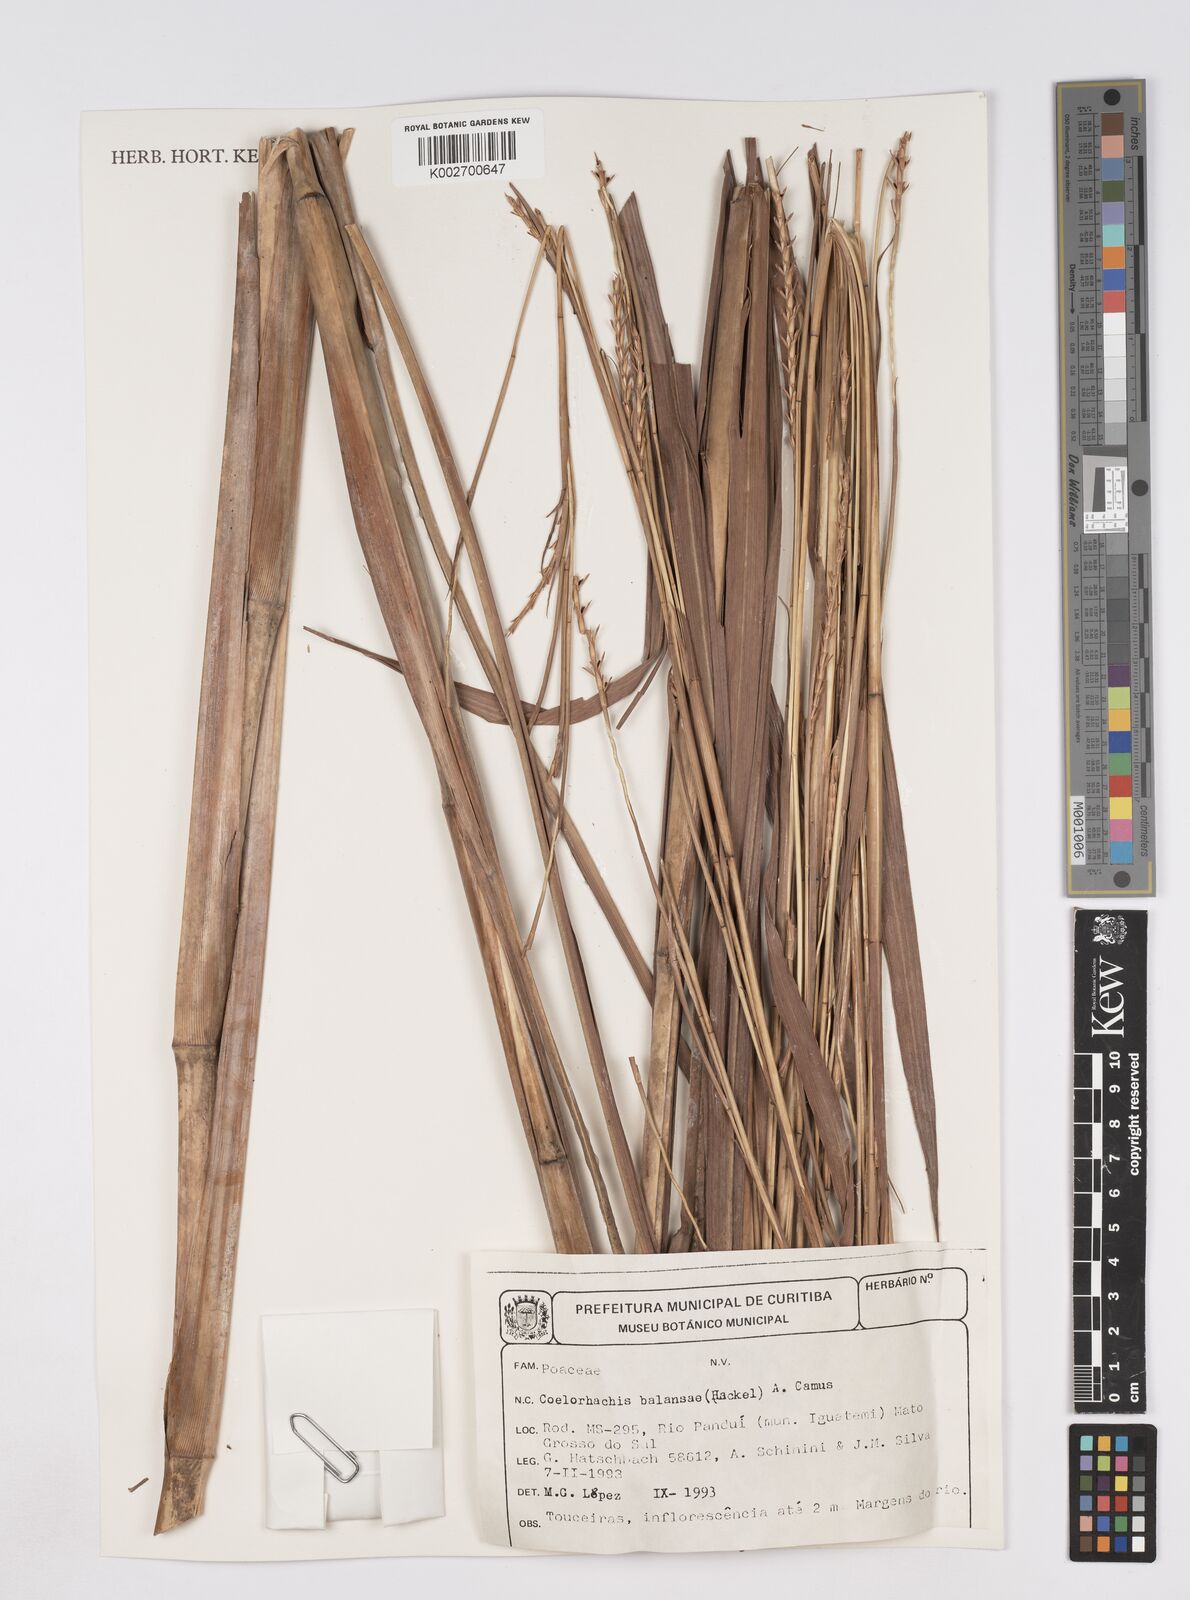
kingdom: Plantae
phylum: Tracheophyta
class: Liliopsida
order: Poales
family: Poaceae
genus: Rottboellia
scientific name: Rottboellia balansae
